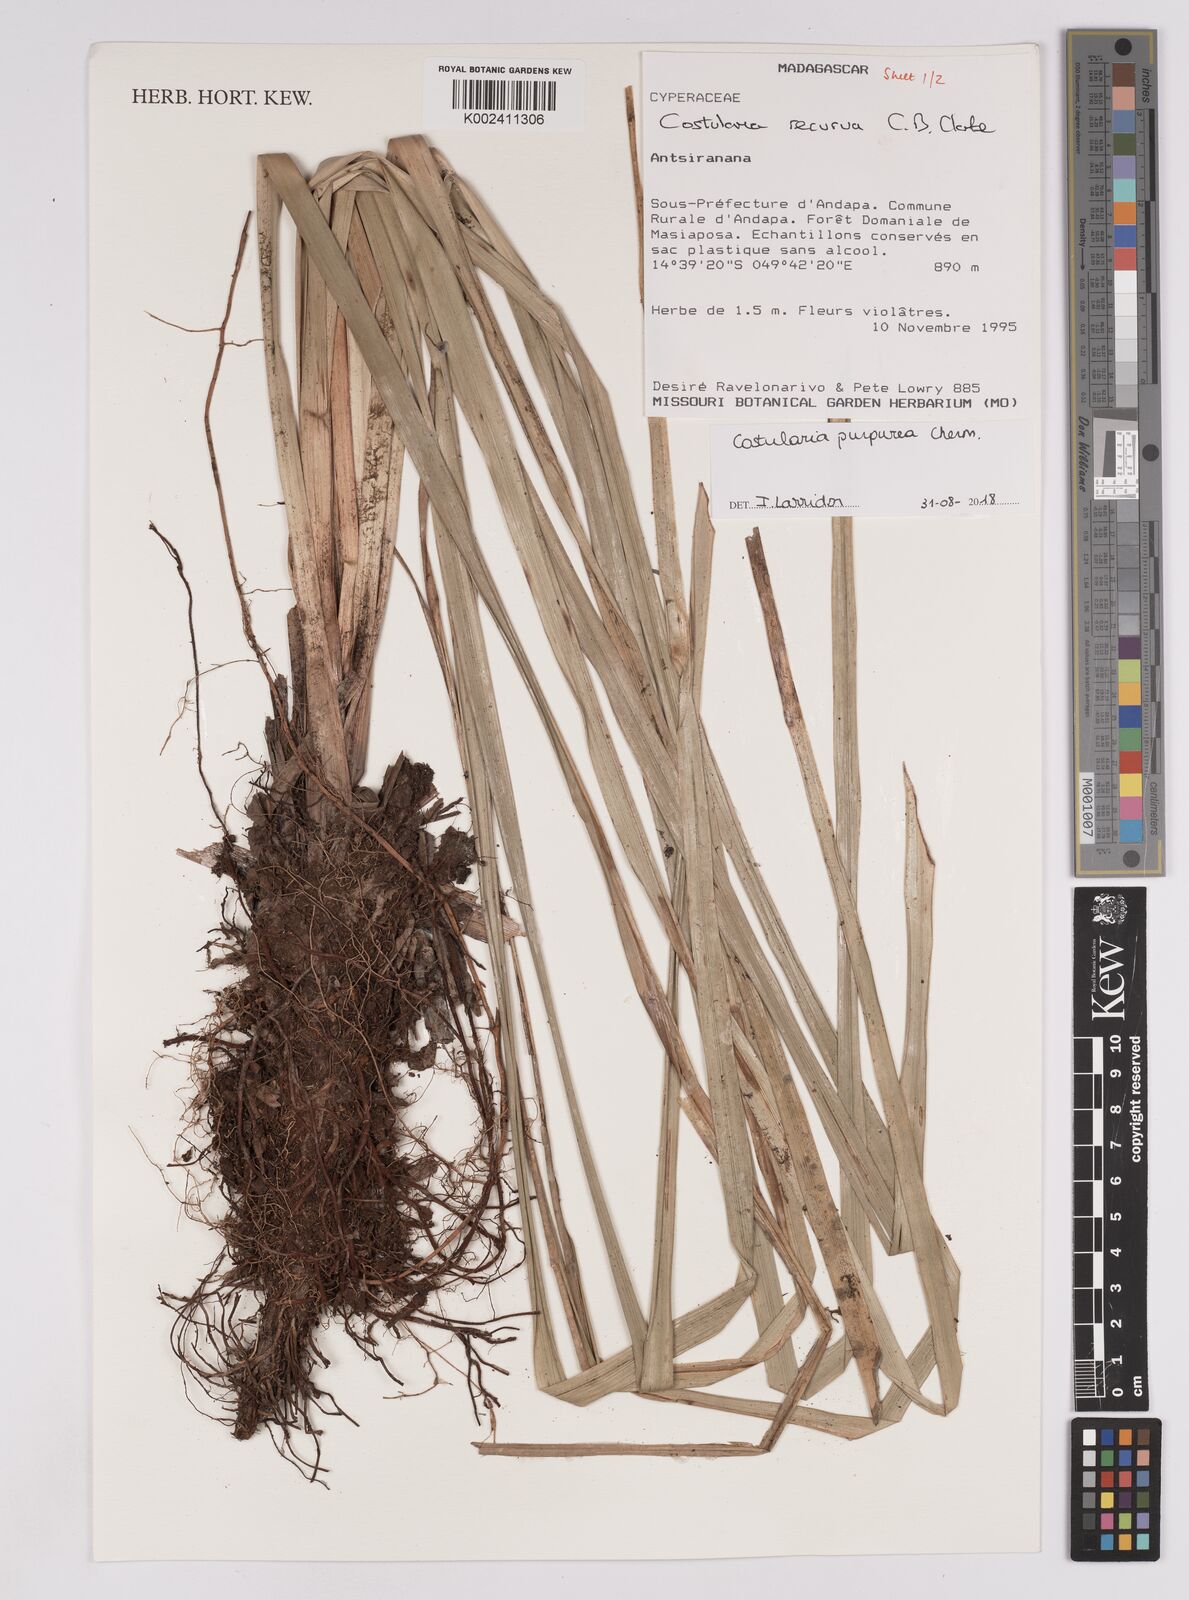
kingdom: Plantae
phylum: Tracheophyta
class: Liliopsida
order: Poales
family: Cyperaceae
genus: Costularia
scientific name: Costularia purpurea
